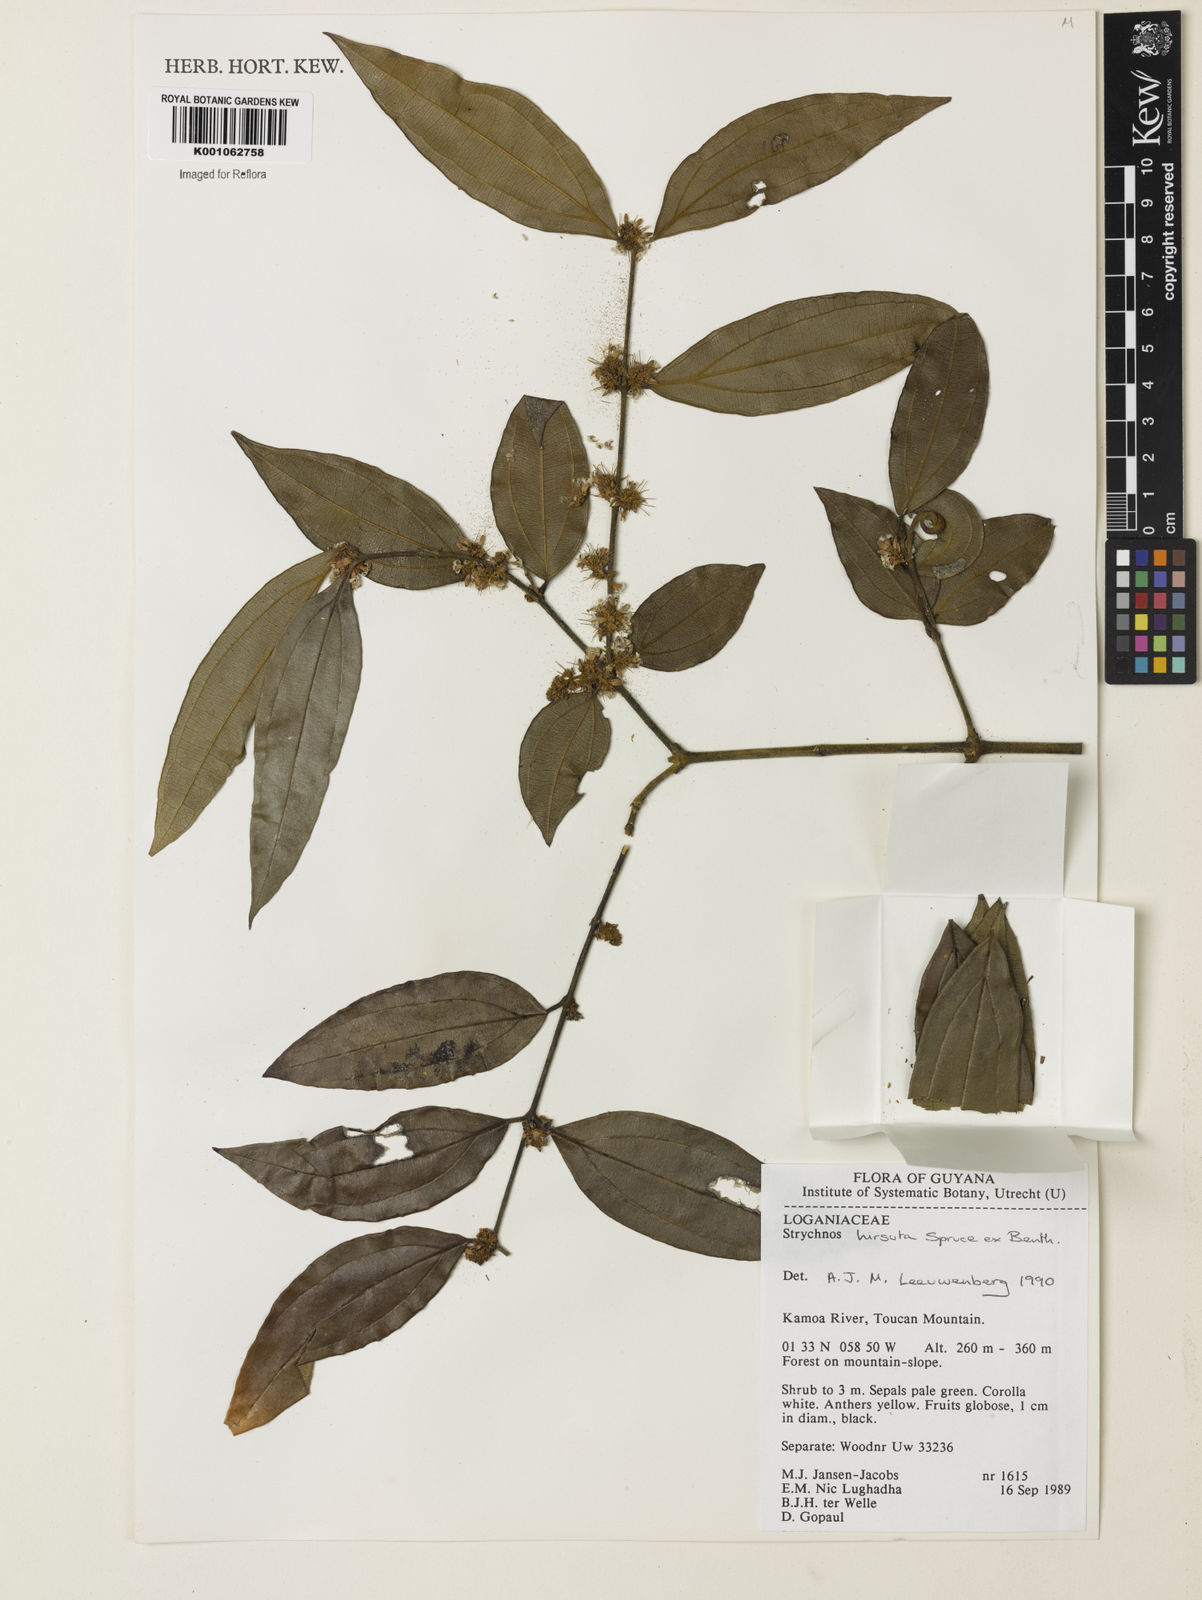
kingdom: Plantae
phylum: Tracheophyta
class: Magnoliopsida
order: Gentianales
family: Loganiaceae
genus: Strychnos
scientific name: Strychnos hirsuta
